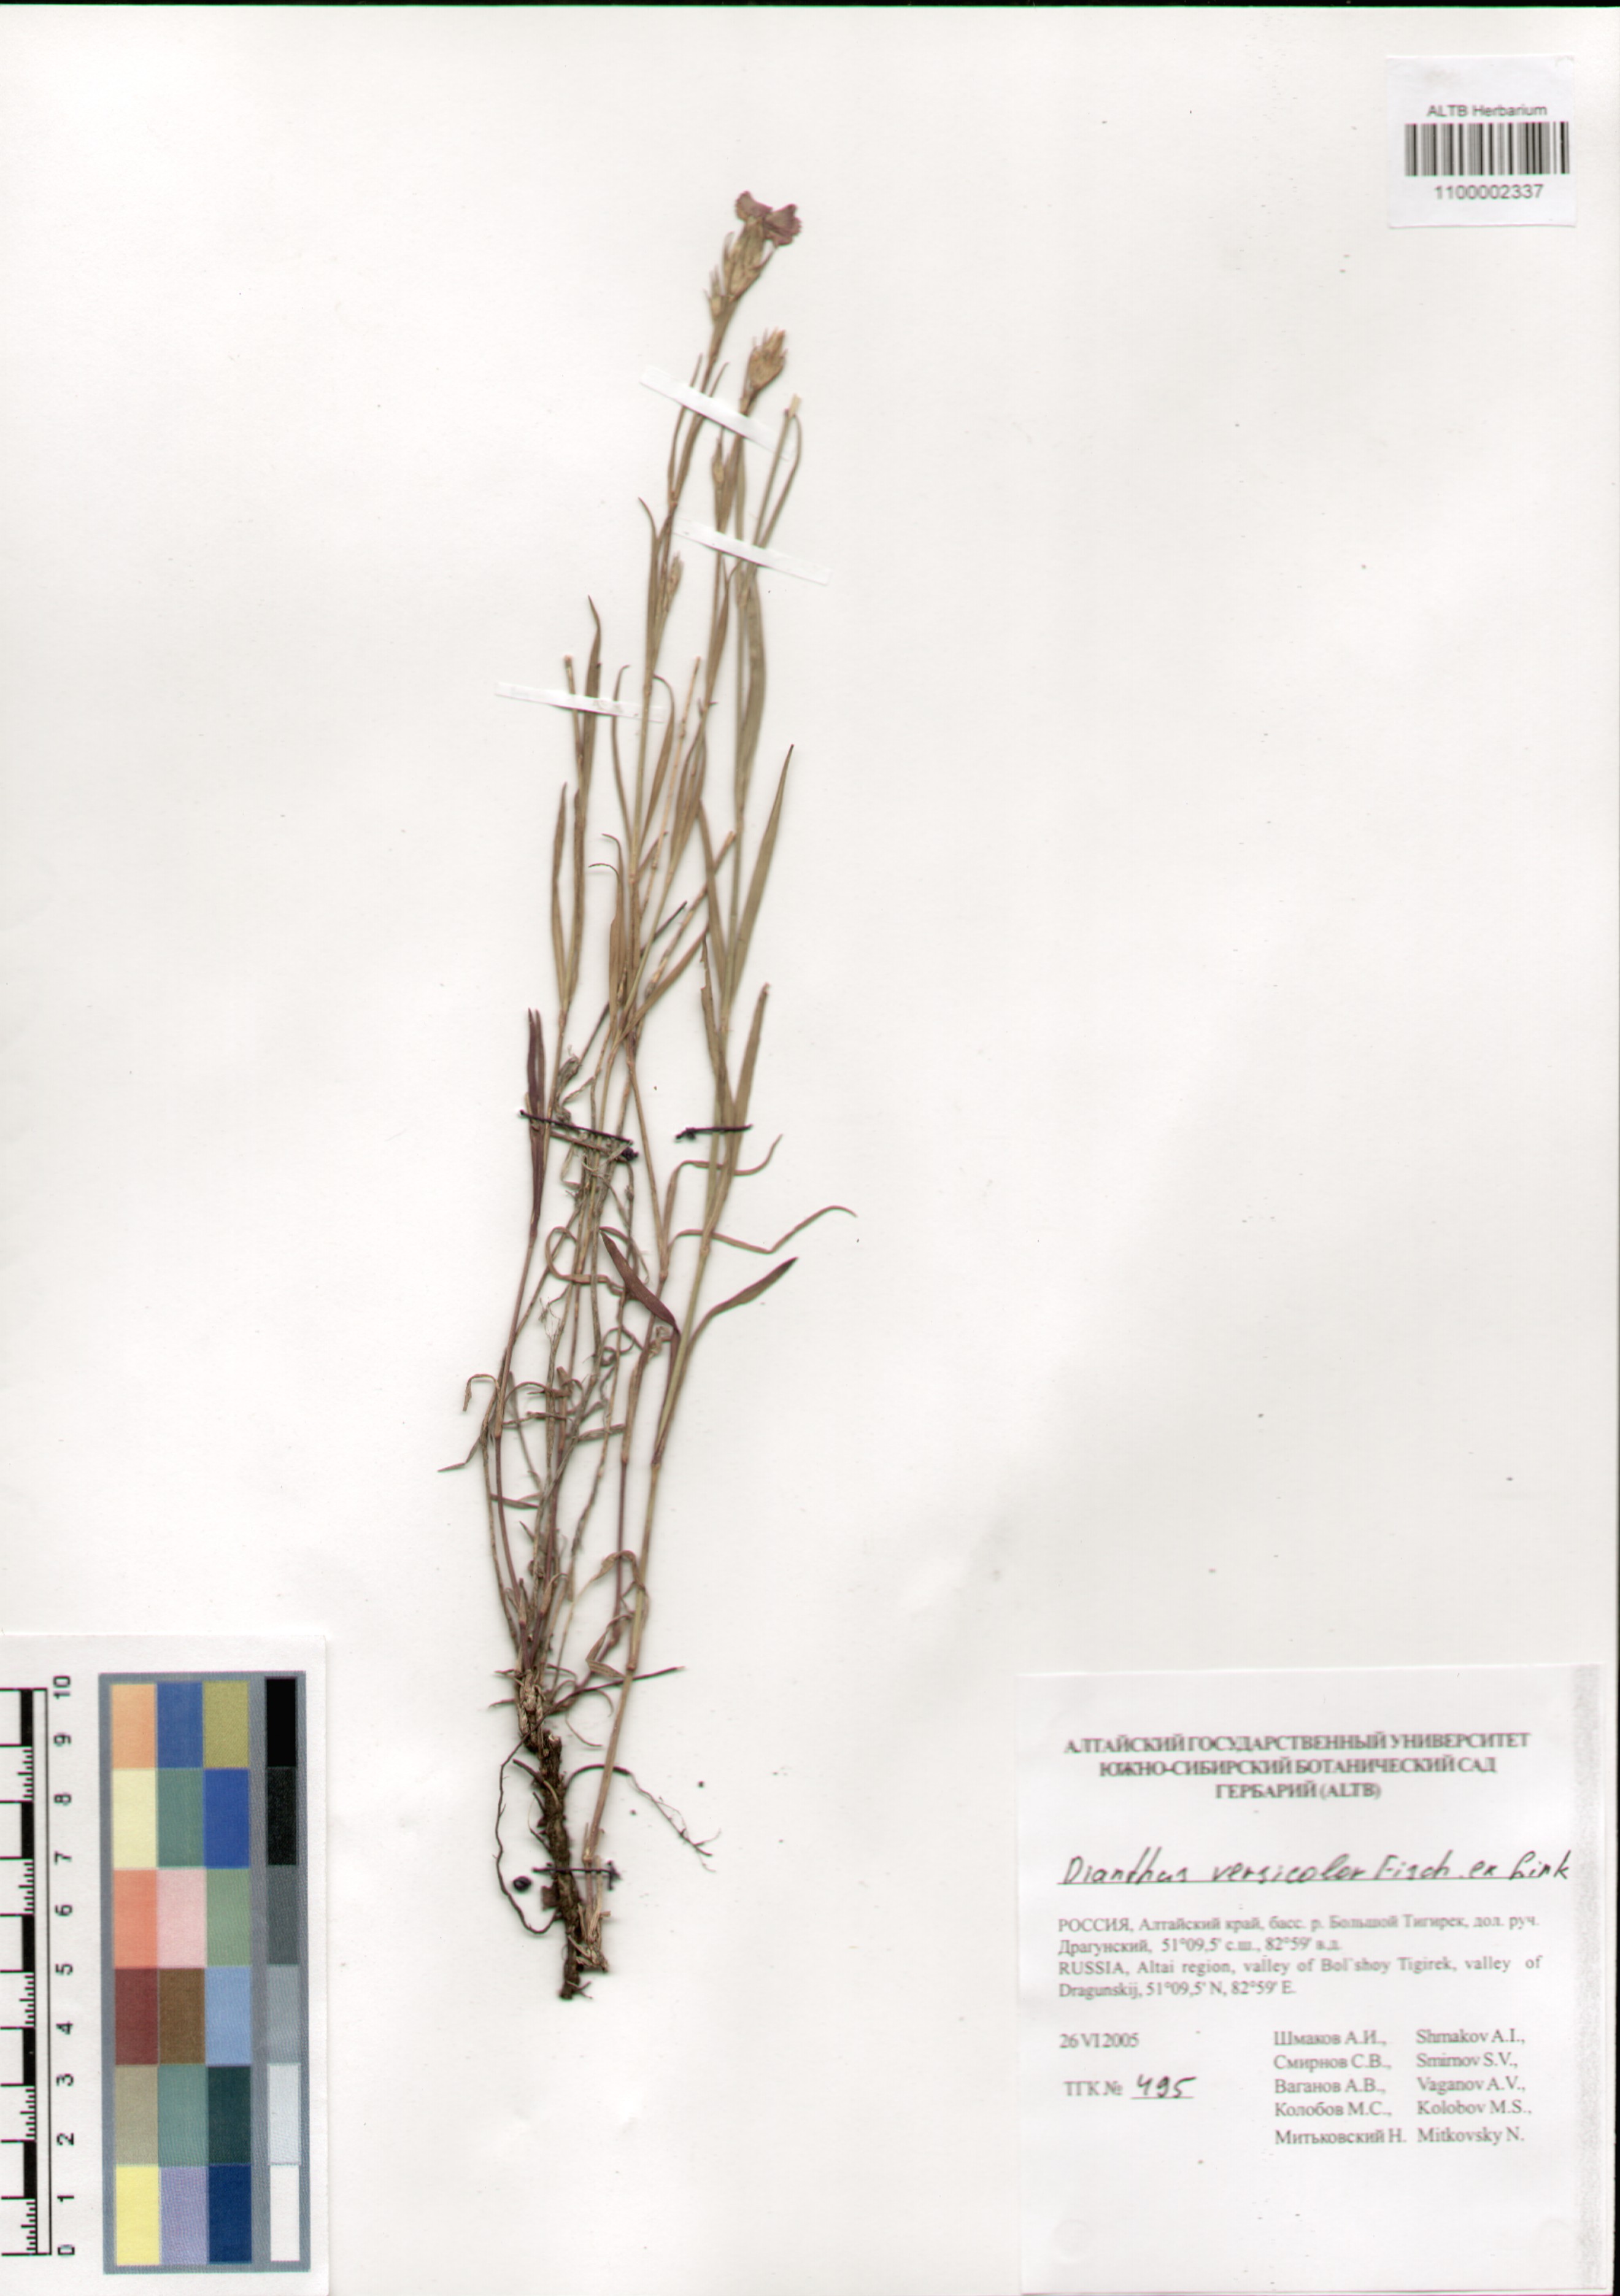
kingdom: Plantae
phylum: Tracheophyta
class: Magnoliopsida
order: Caryophyllales
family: Caryophyllaceae
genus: Dianthus
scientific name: Dianthus chinensis
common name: Rainbow pink
